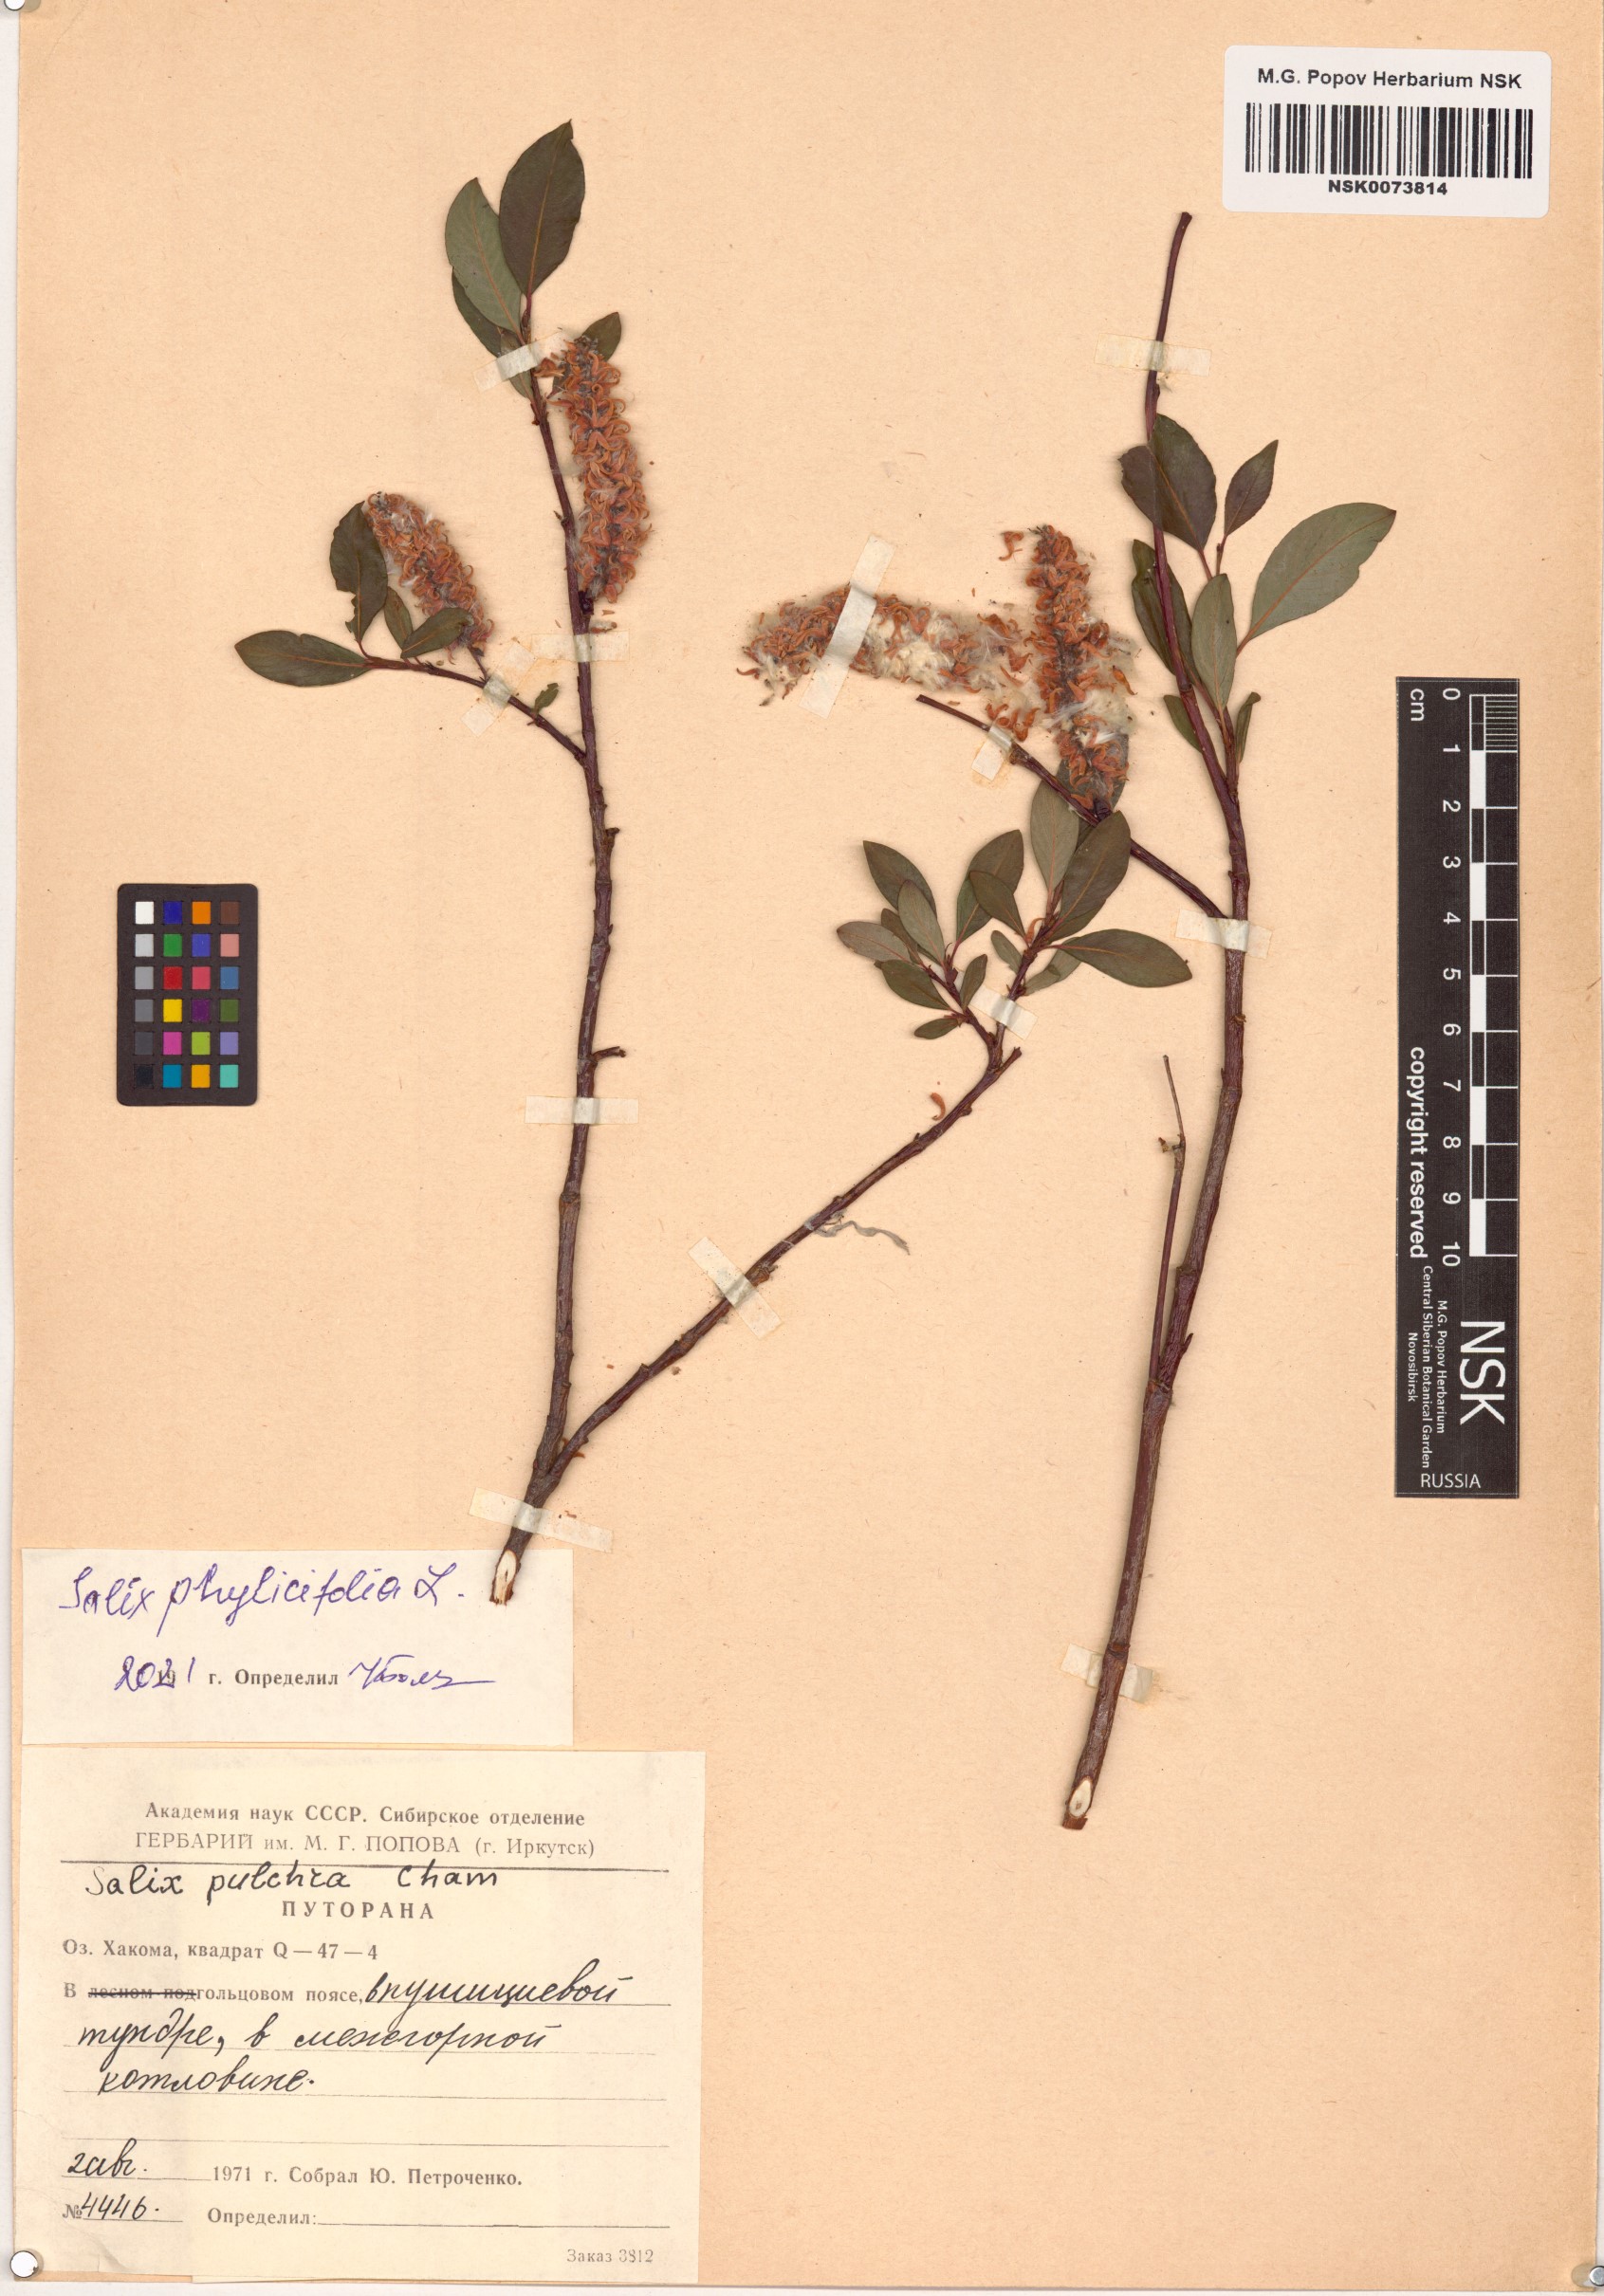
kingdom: Plantae
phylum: Tracheophyta
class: Magnoliopsida
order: Malpighiales
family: Salicaceae
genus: Salix
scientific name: Salix phylicifolia
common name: Tea-leaved willow
